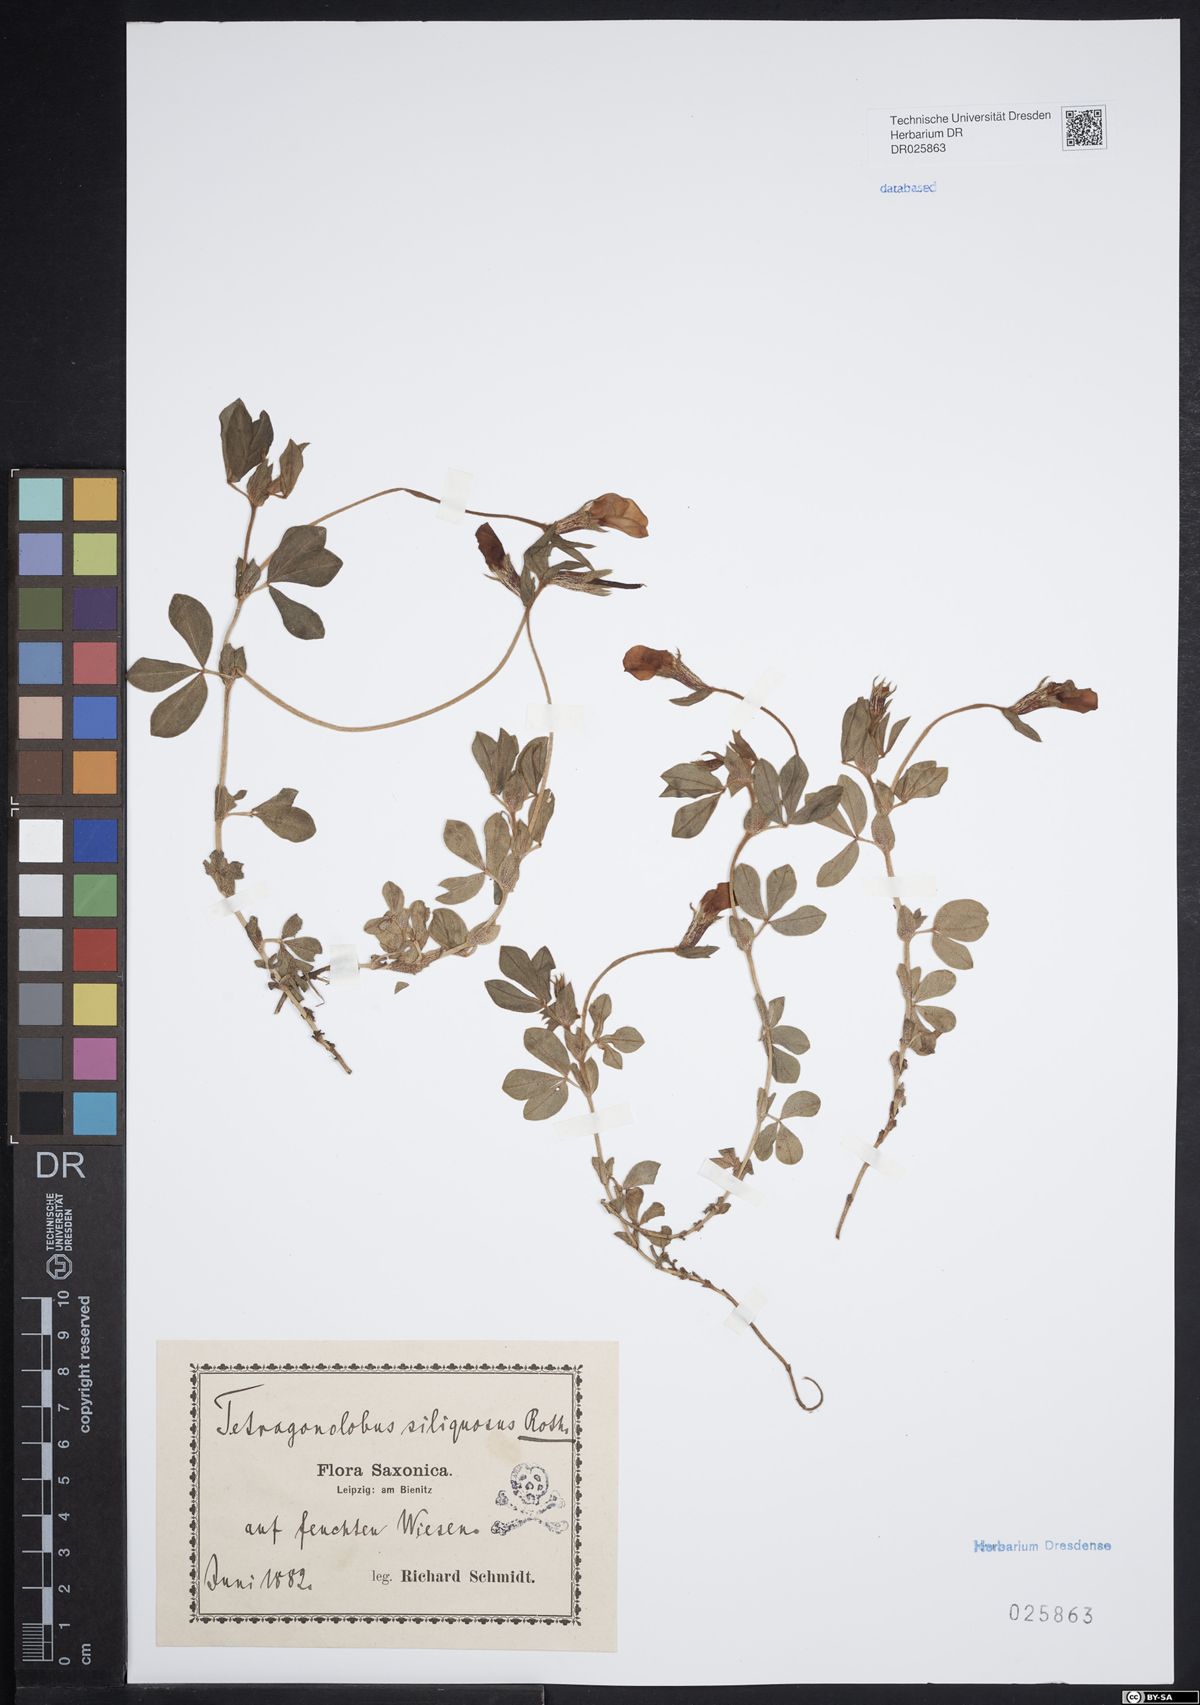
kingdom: Plantae
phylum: Tracheophyta
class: Magnoliopsida
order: Fabales
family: Fabaceae
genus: Lotus
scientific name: Lotus maritimus
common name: Dragon's-teeth
